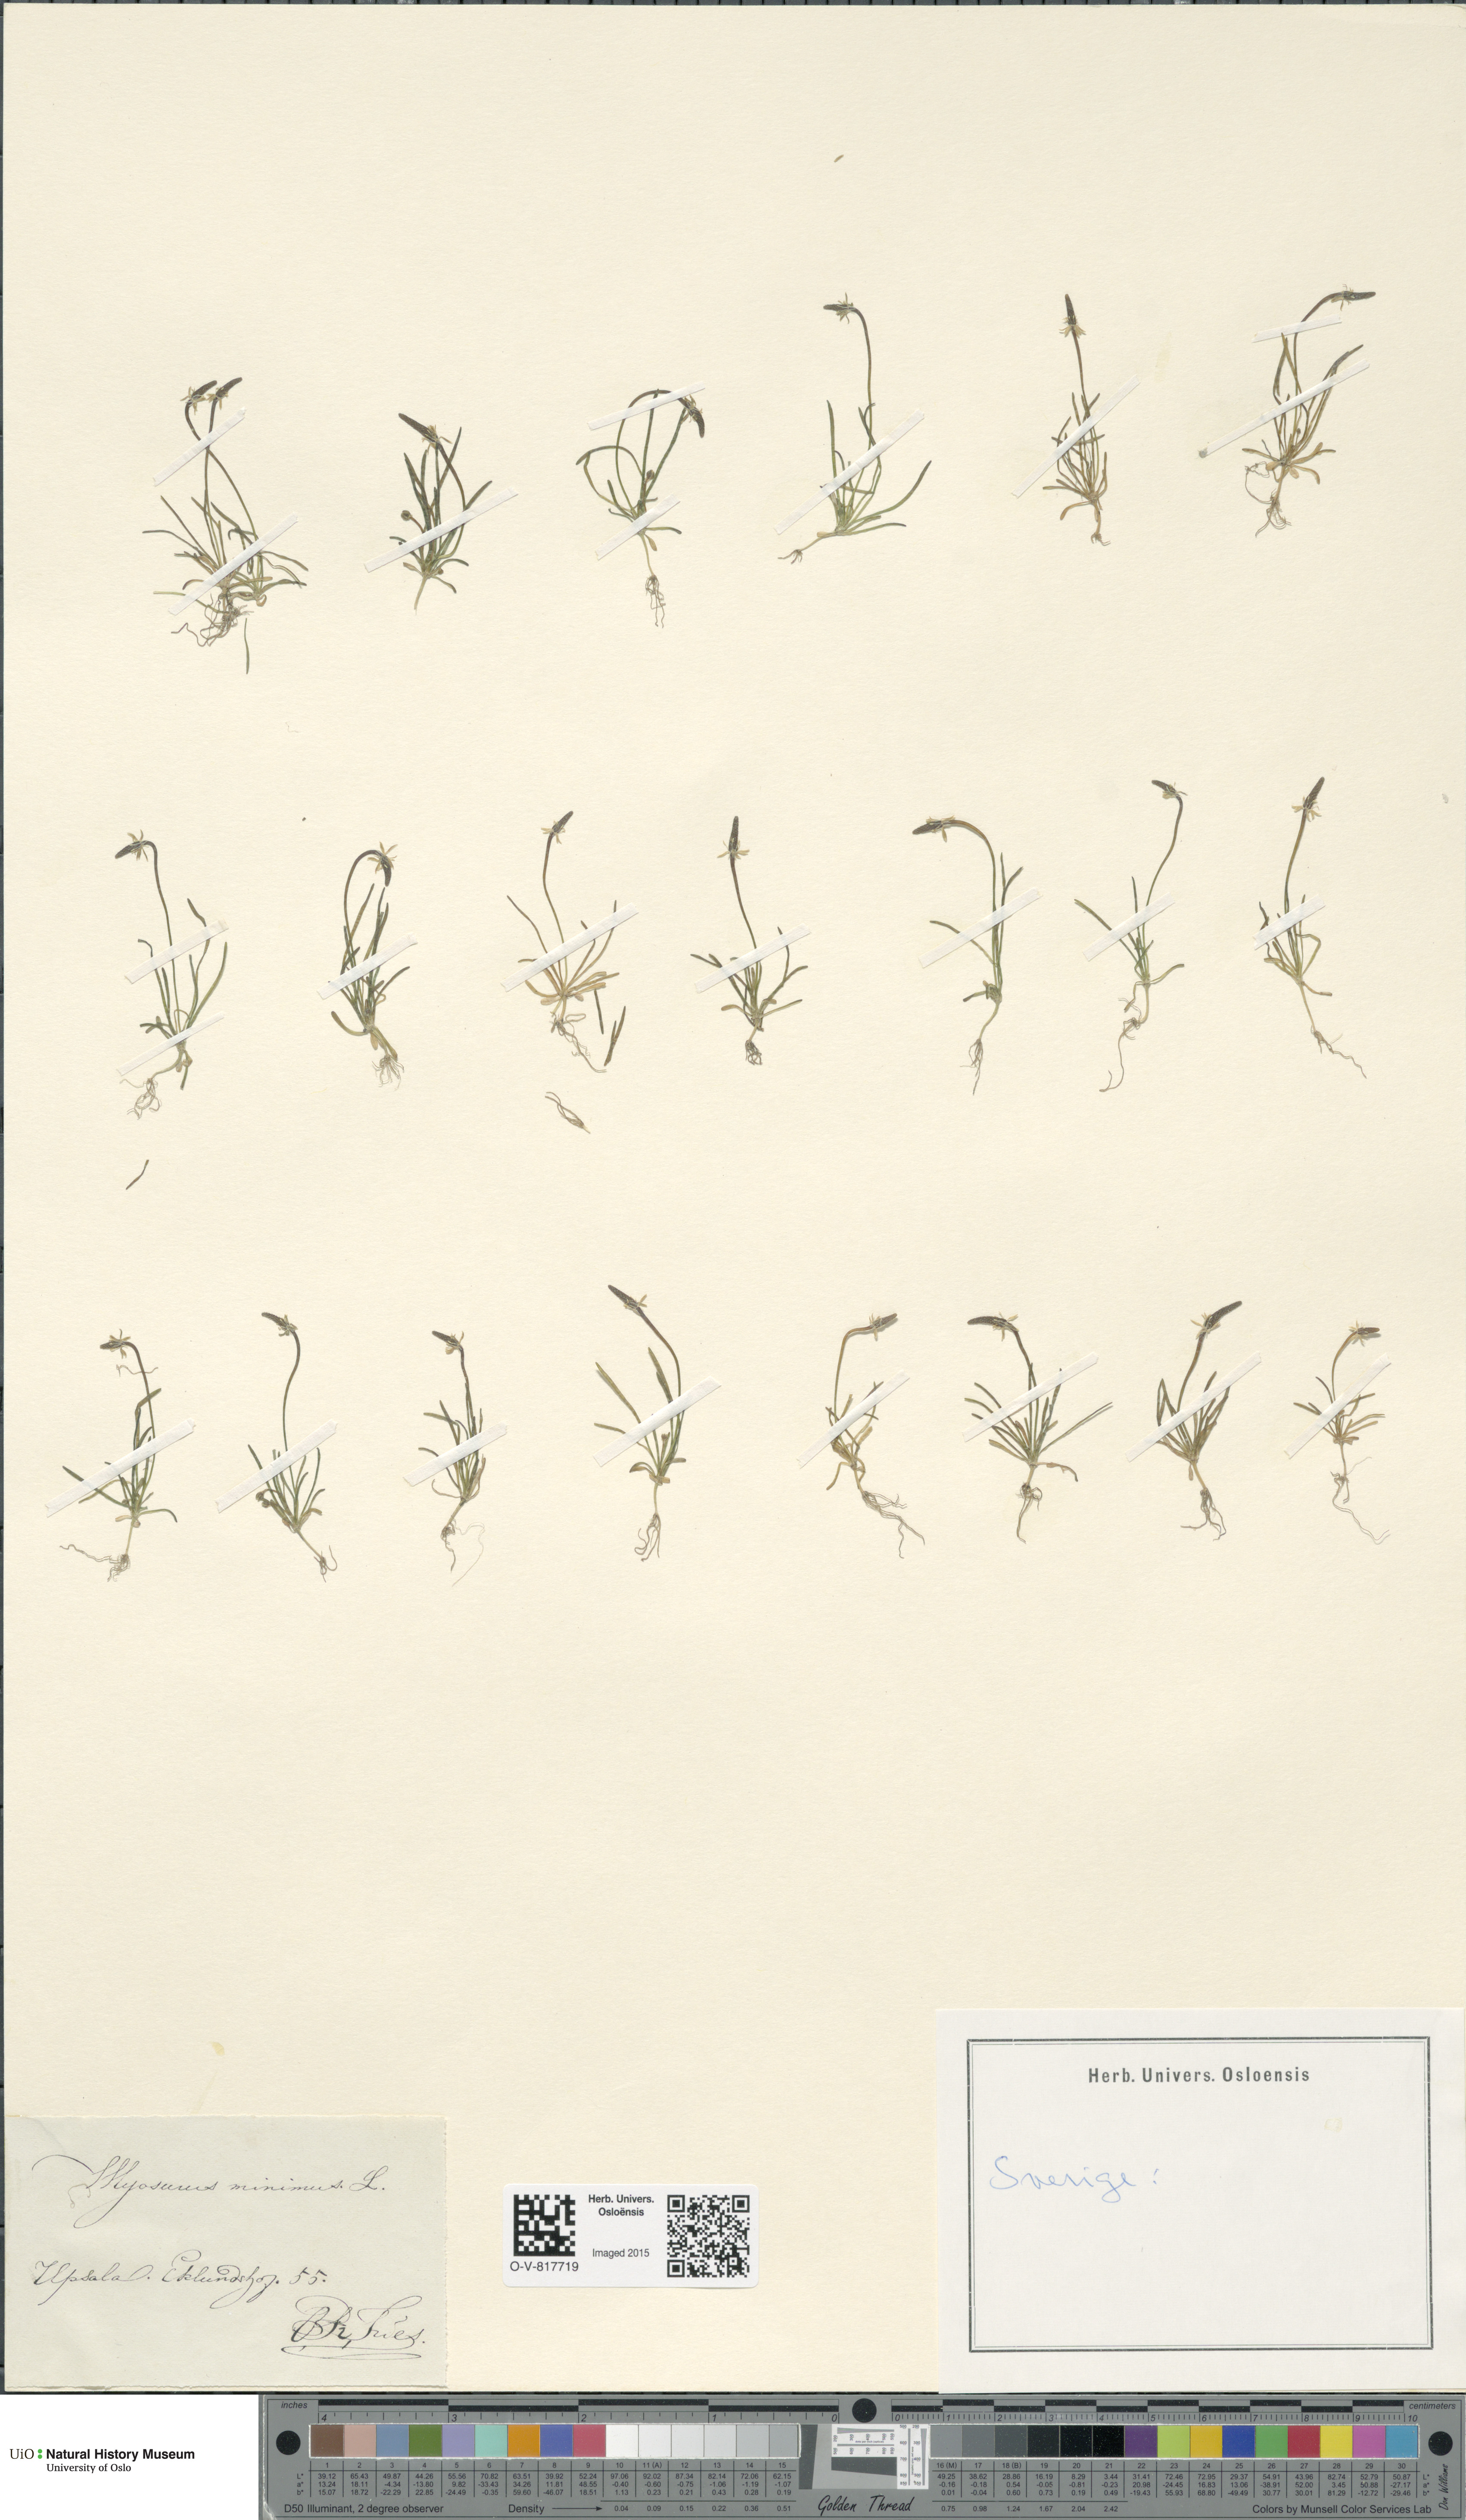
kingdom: Plantae
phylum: Tracheophyta
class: Magnoliopsida
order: Ranunculales
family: Ranunculaceae
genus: Myosurus
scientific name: Myosurus minimus
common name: Mousetail
